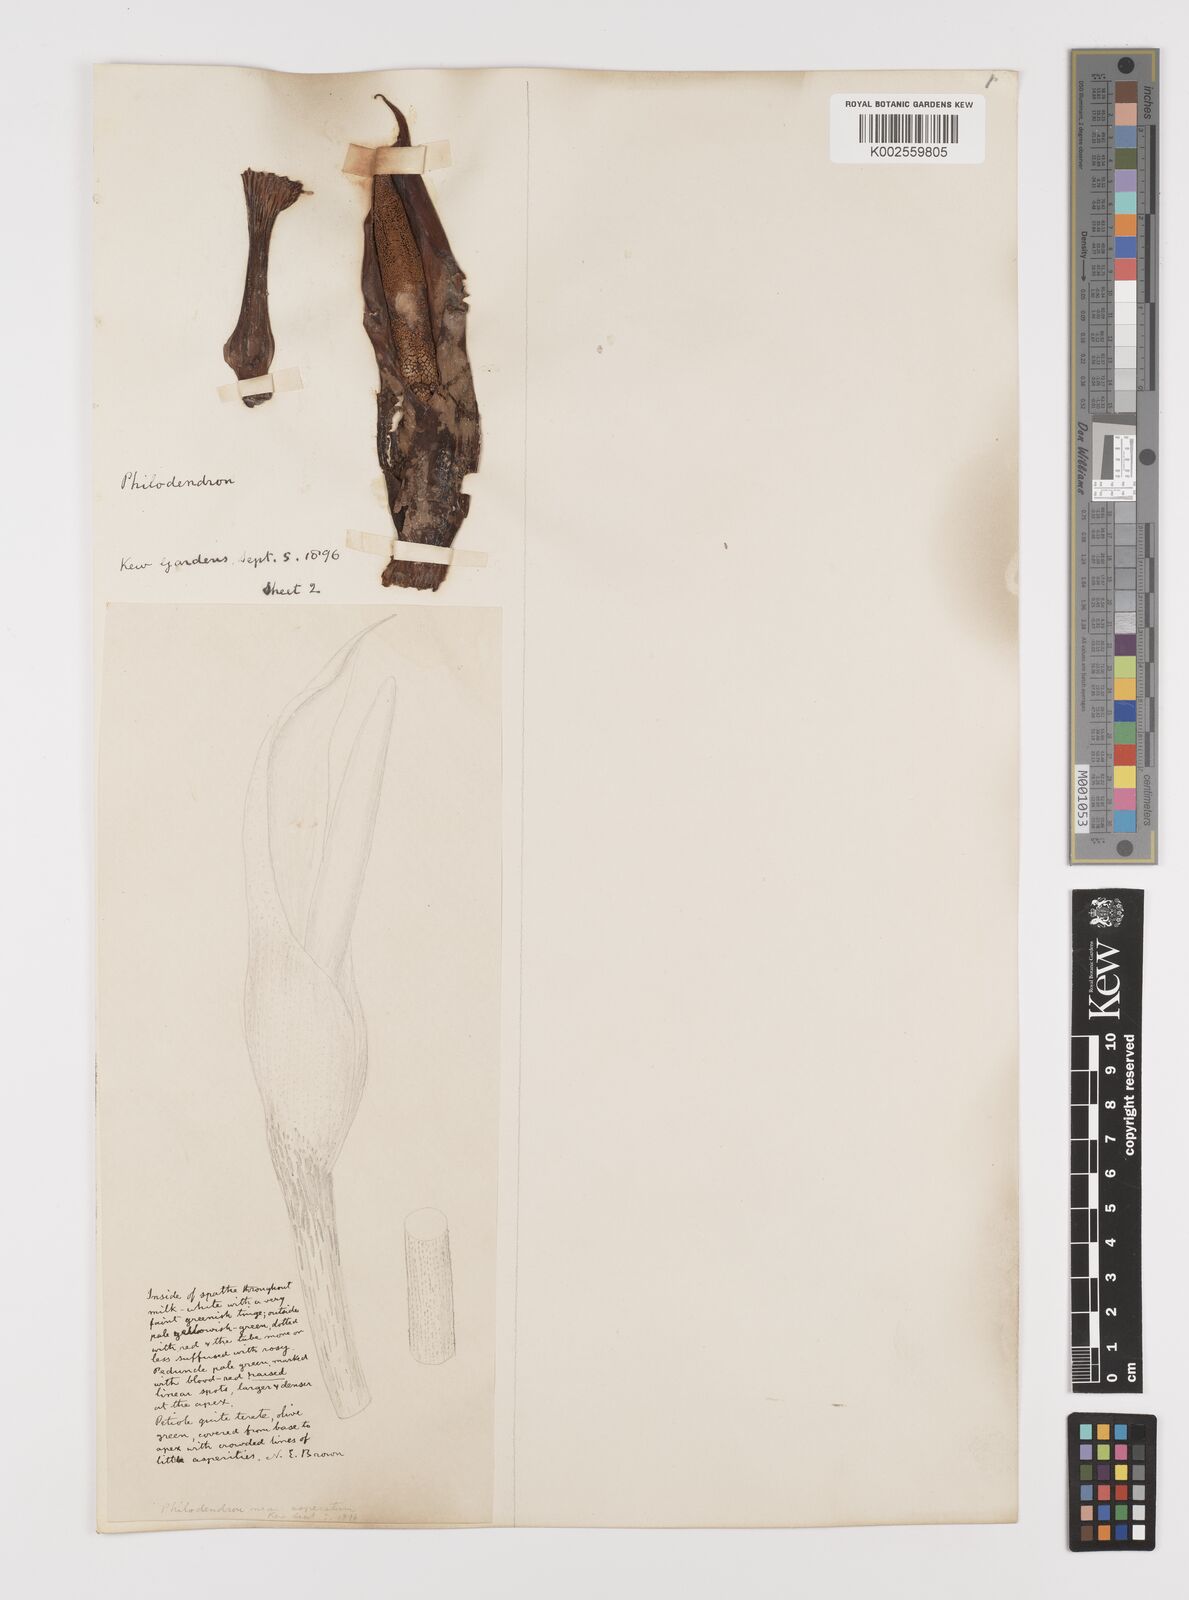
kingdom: Plantae
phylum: Tracheophyta
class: Liliopsida
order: Alismatales
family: Araceae
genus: Philodendron
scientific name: Philodendron ornatum
